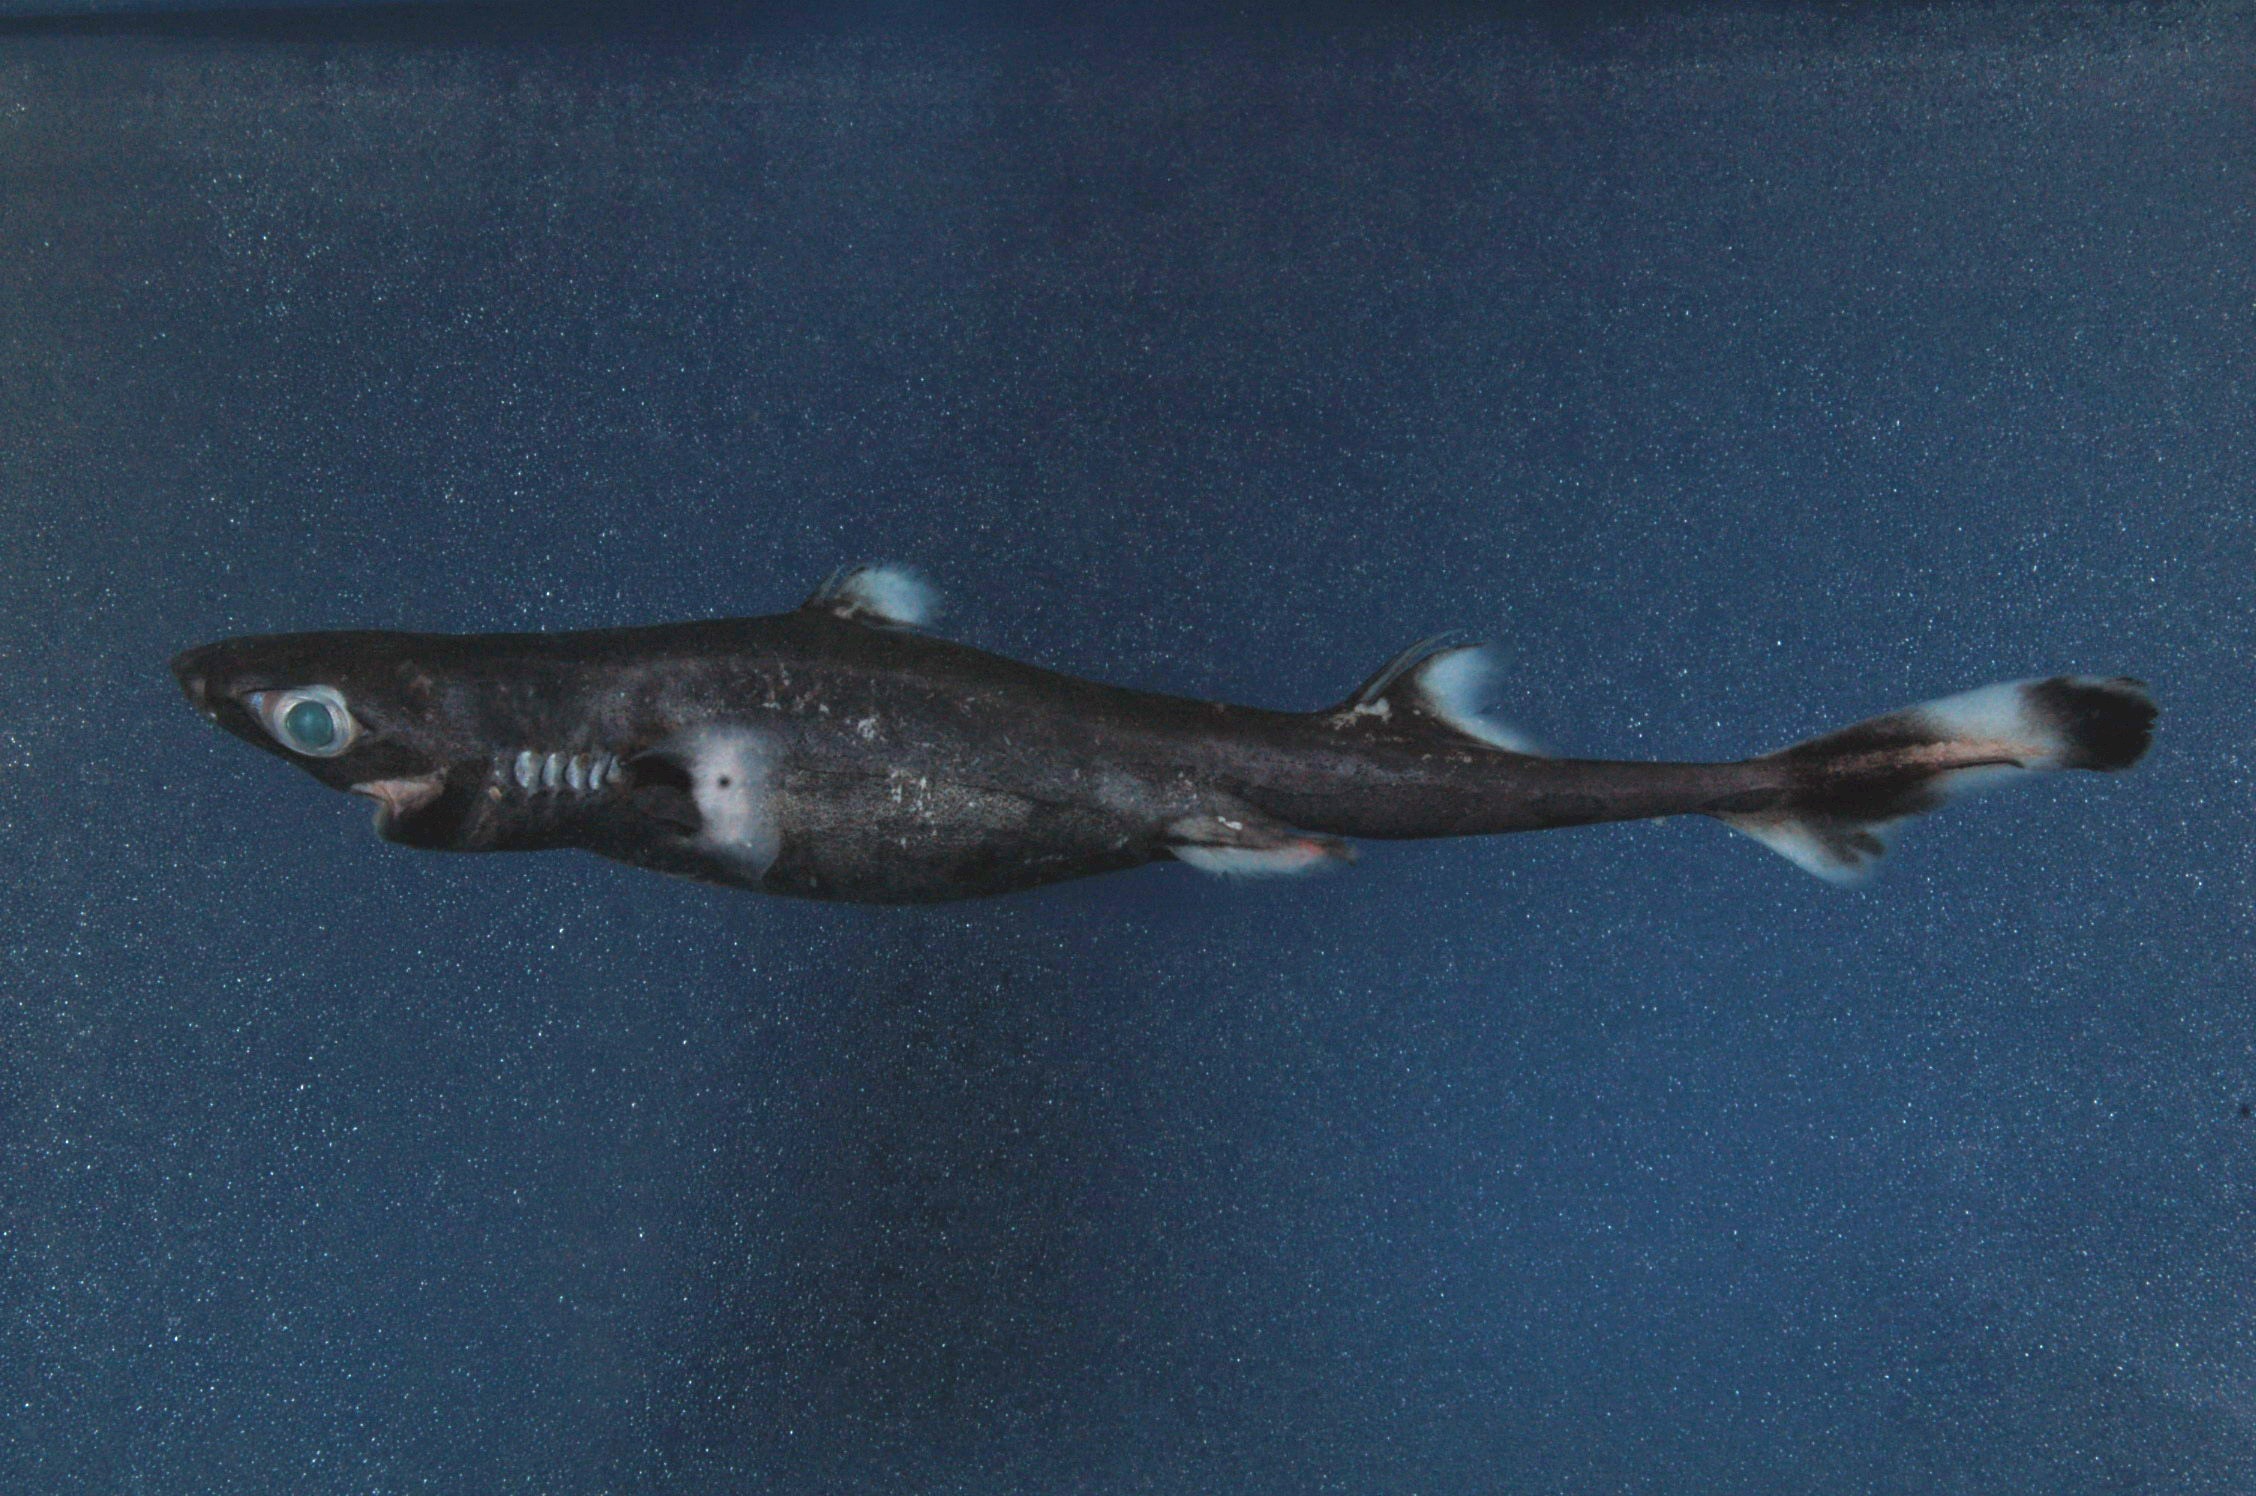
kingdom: Animalia
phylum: Chordata
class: Elasmobranchii
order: Squaliformes
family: Etmopteridae
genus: Etmopterus
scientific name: Etmopterus sentosus
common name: Thorny lanternshark
